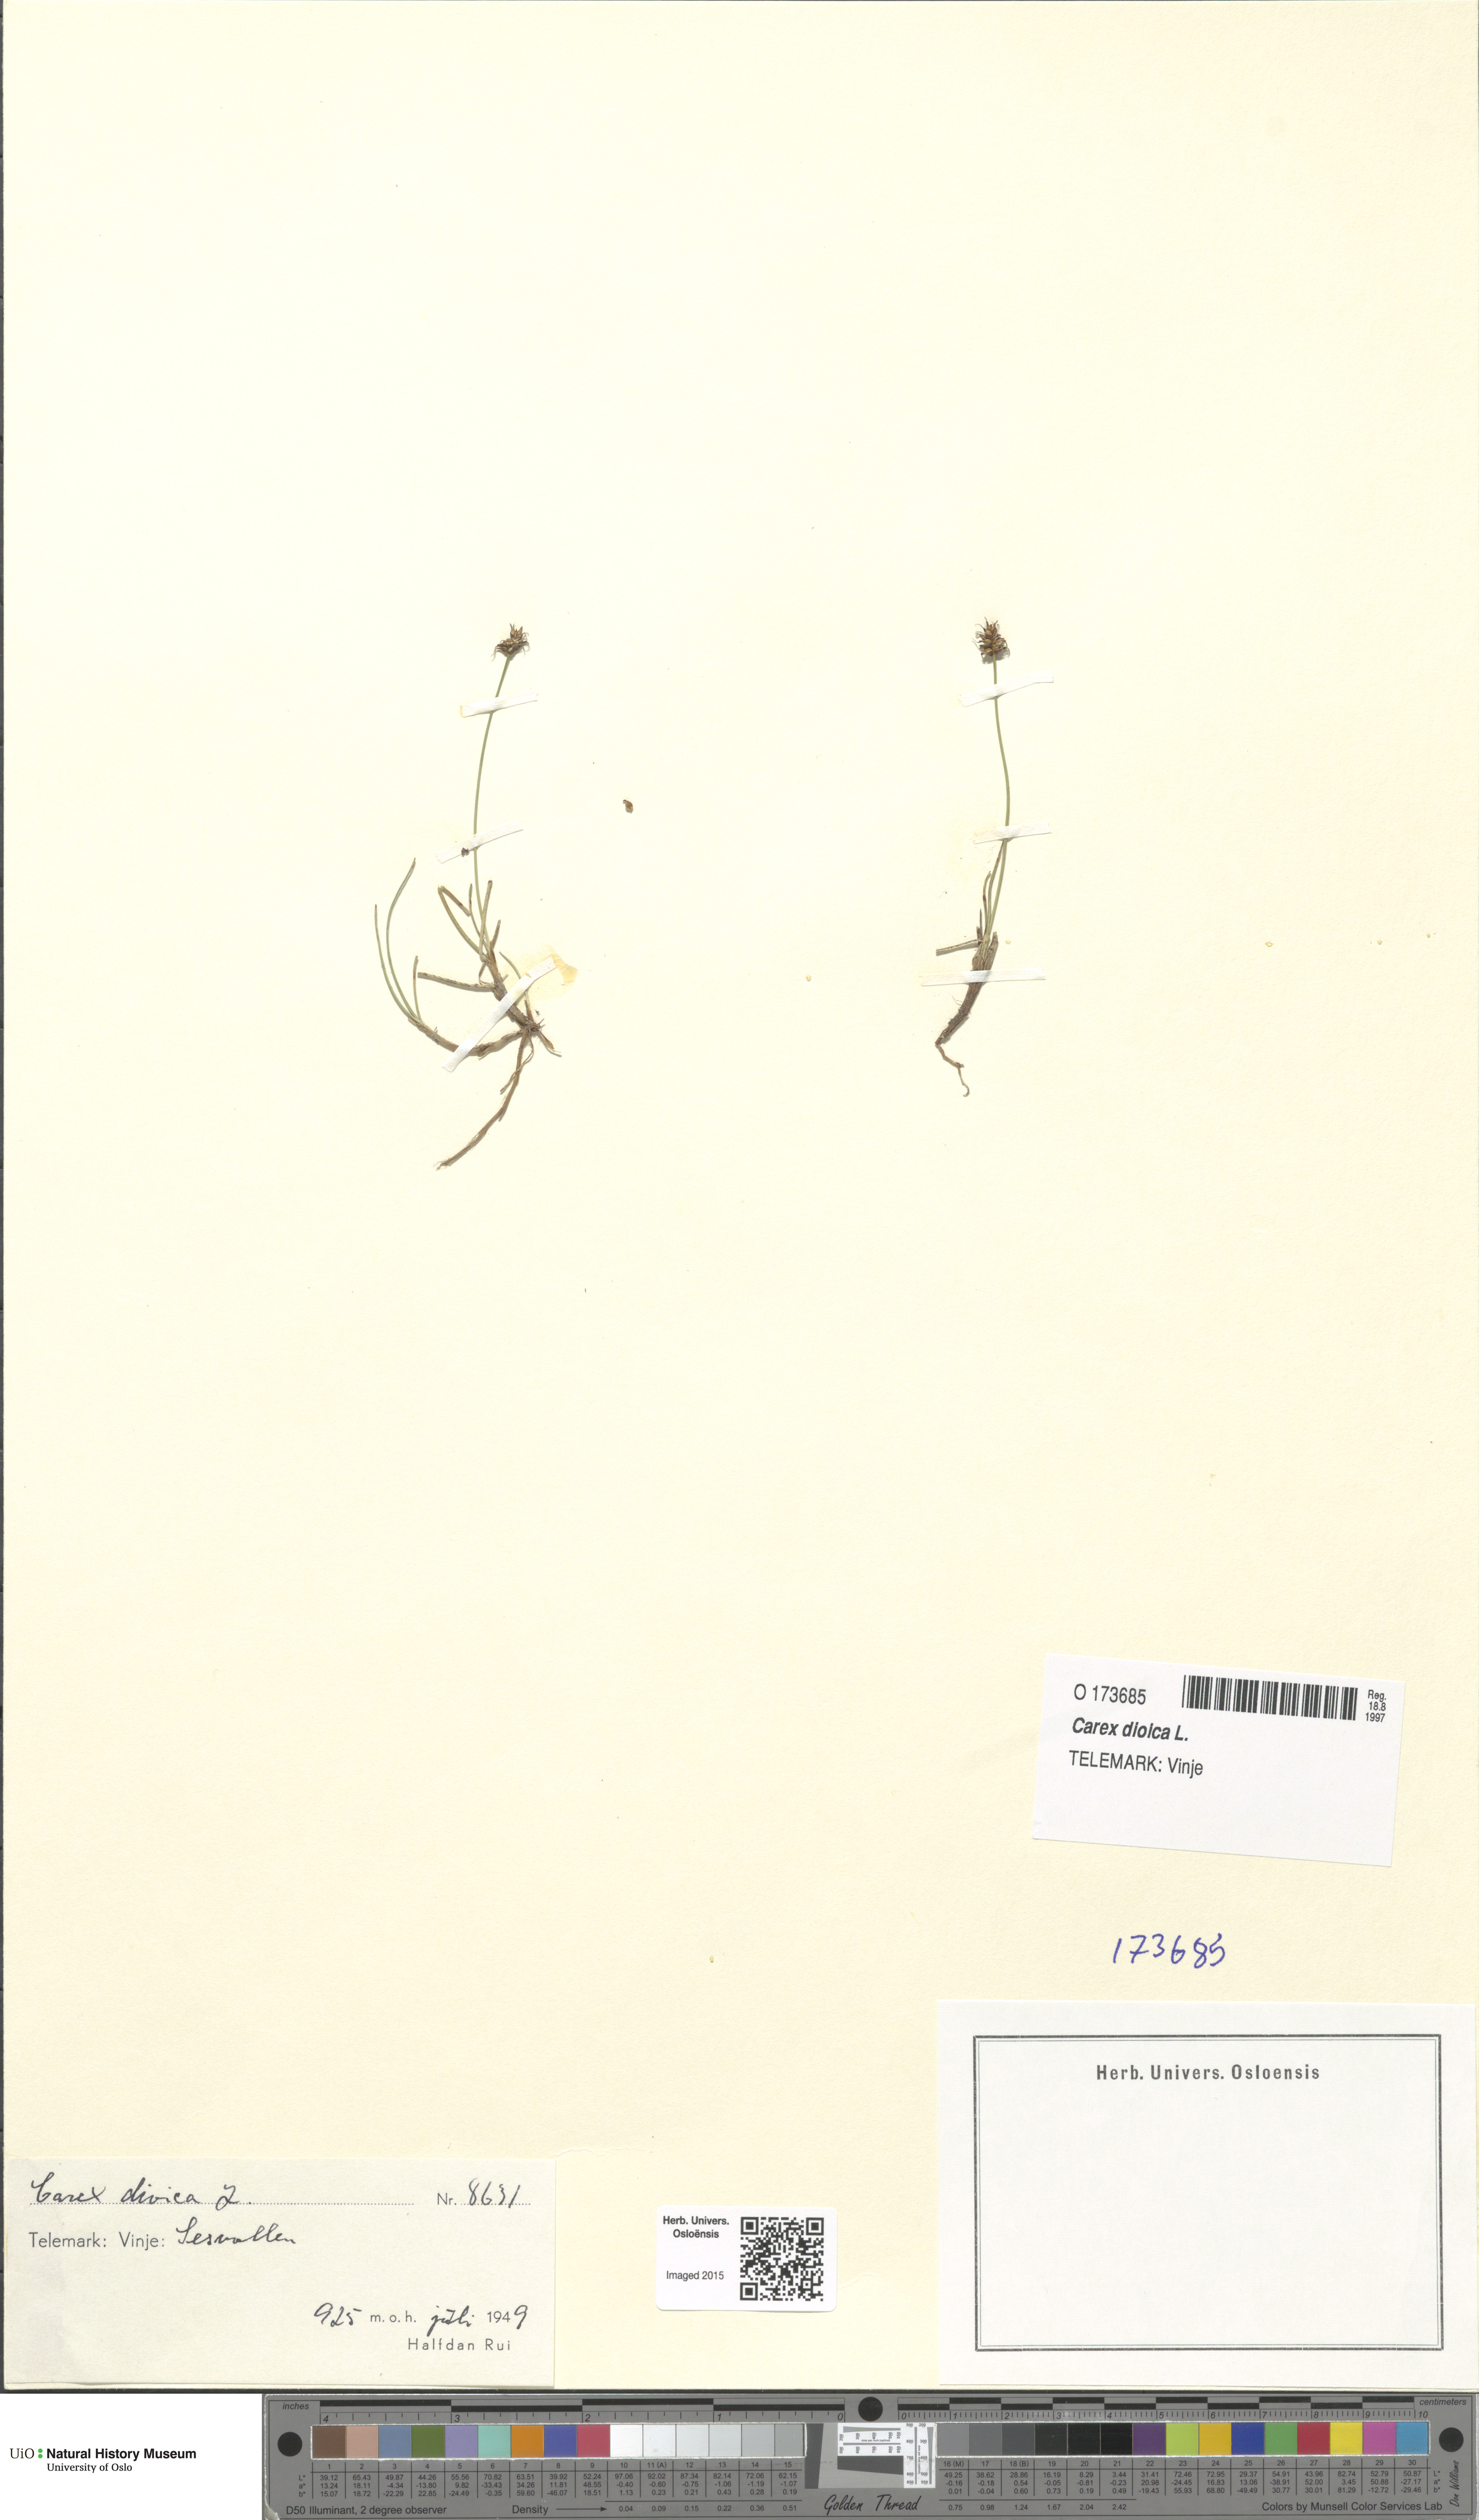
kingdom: Plantae
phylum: Tracheophyta
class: Liliopsida
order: Poales
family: Cyperaceae
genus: Carex
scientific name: Carex dioica
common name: Dioecious sedge
